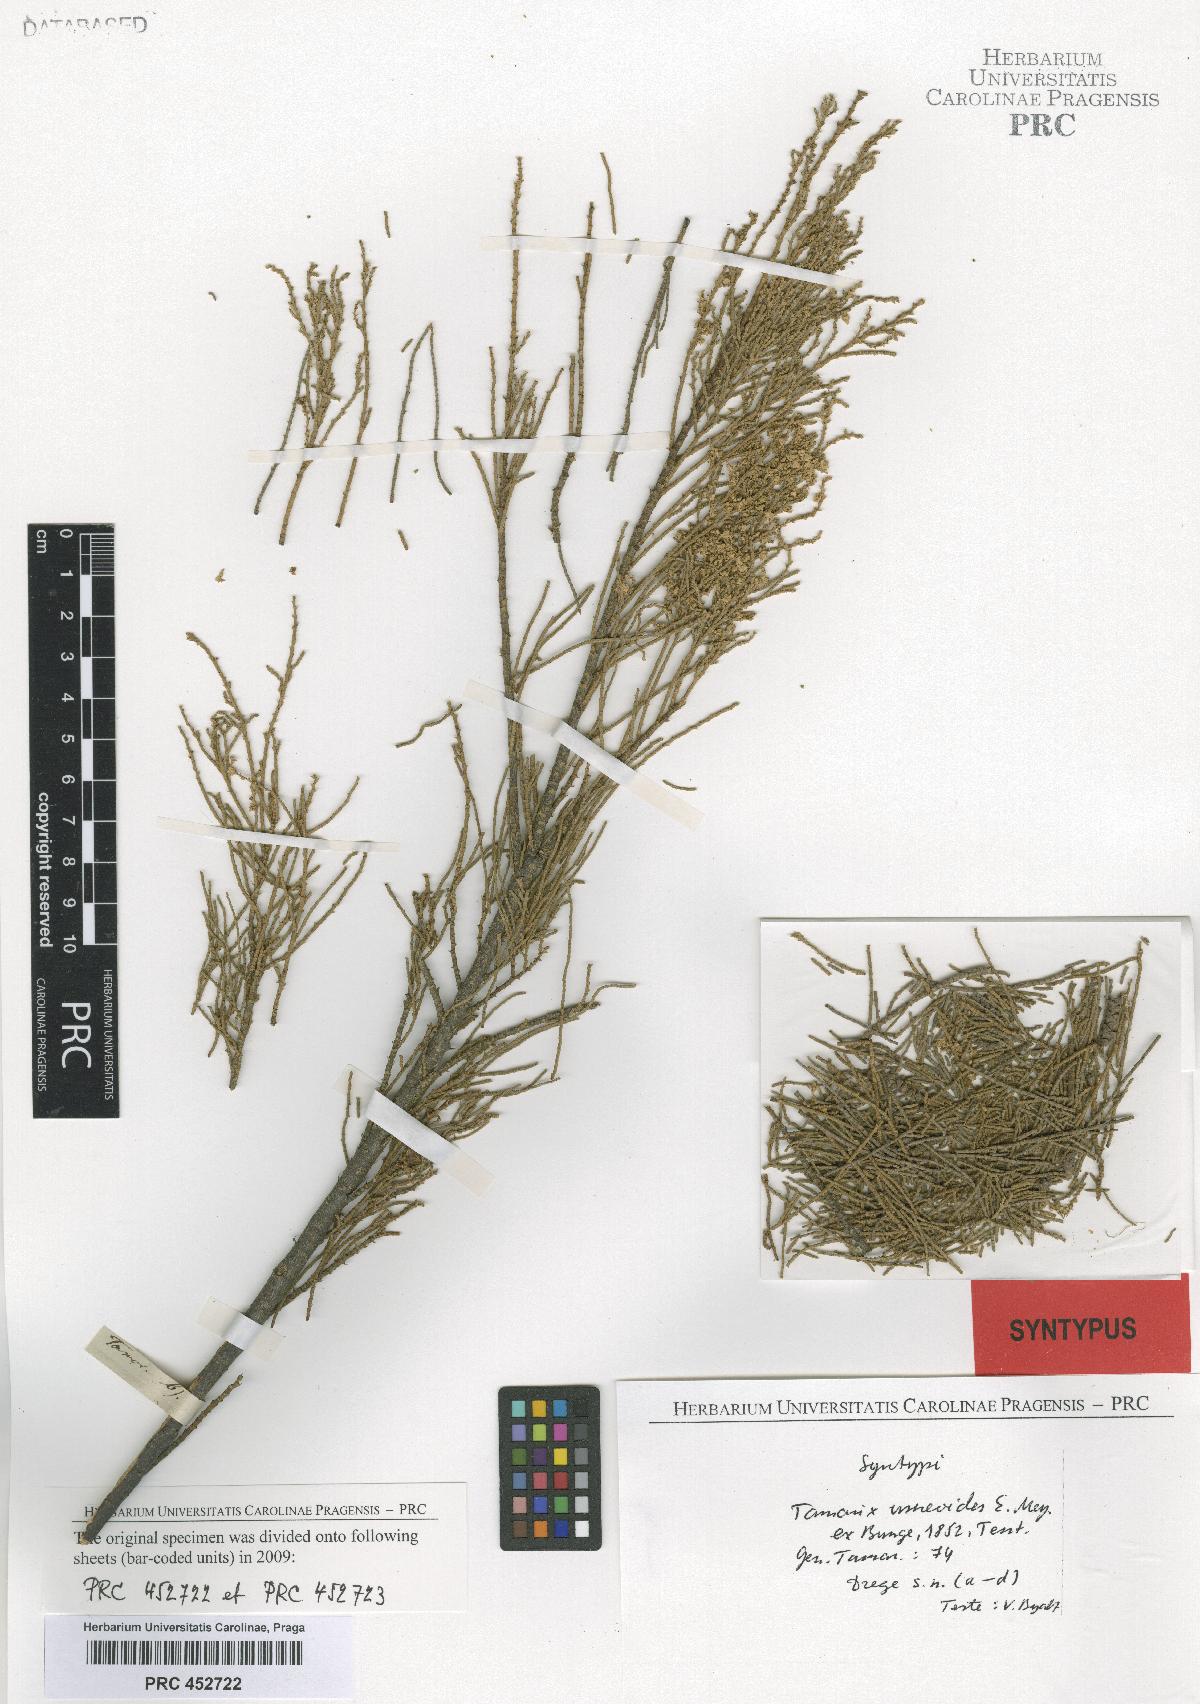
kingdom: Plantae
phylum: Tracheophyta
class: Magnoliopsida
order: Caryophyllales
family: Tamaricaceae
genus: Tamarix
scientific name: Tamarix usneoides
